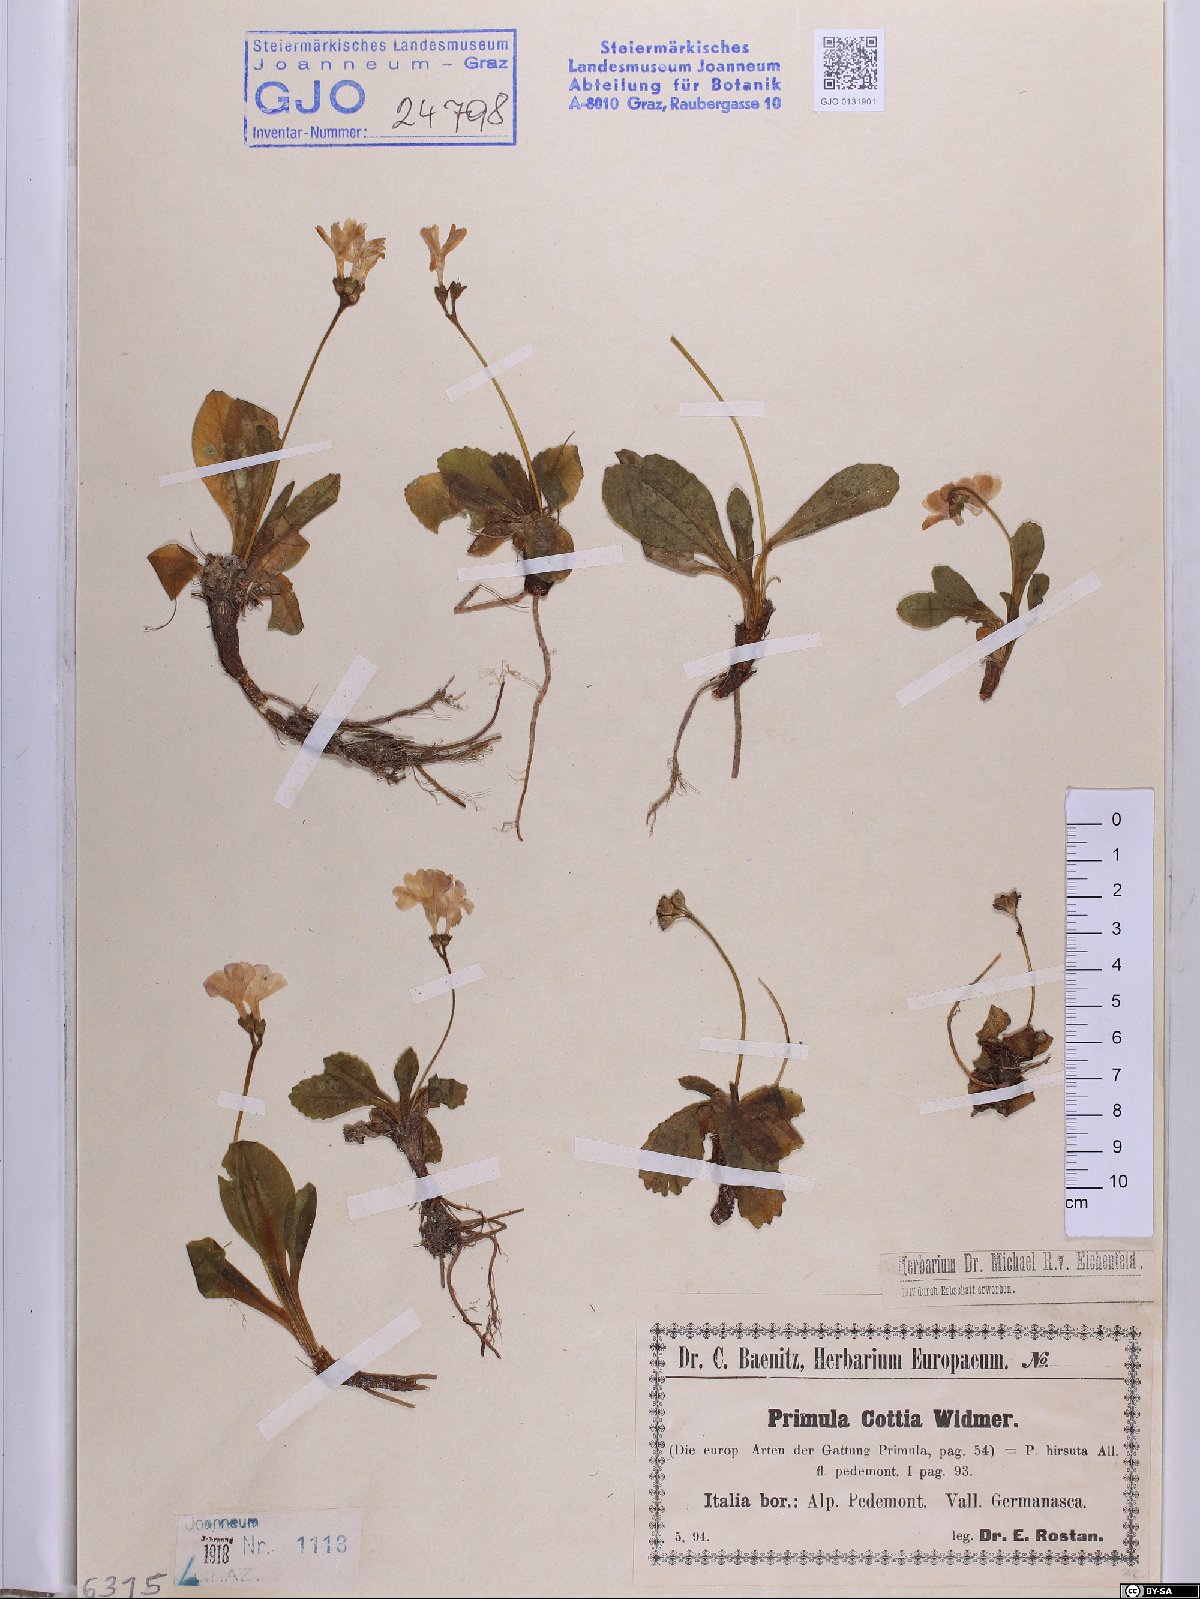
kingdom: Plantae
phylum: Tracheophyta
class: Magnoliopsida
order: Ericales
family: Primulaceae
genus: Primula
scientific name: Primula villosa
